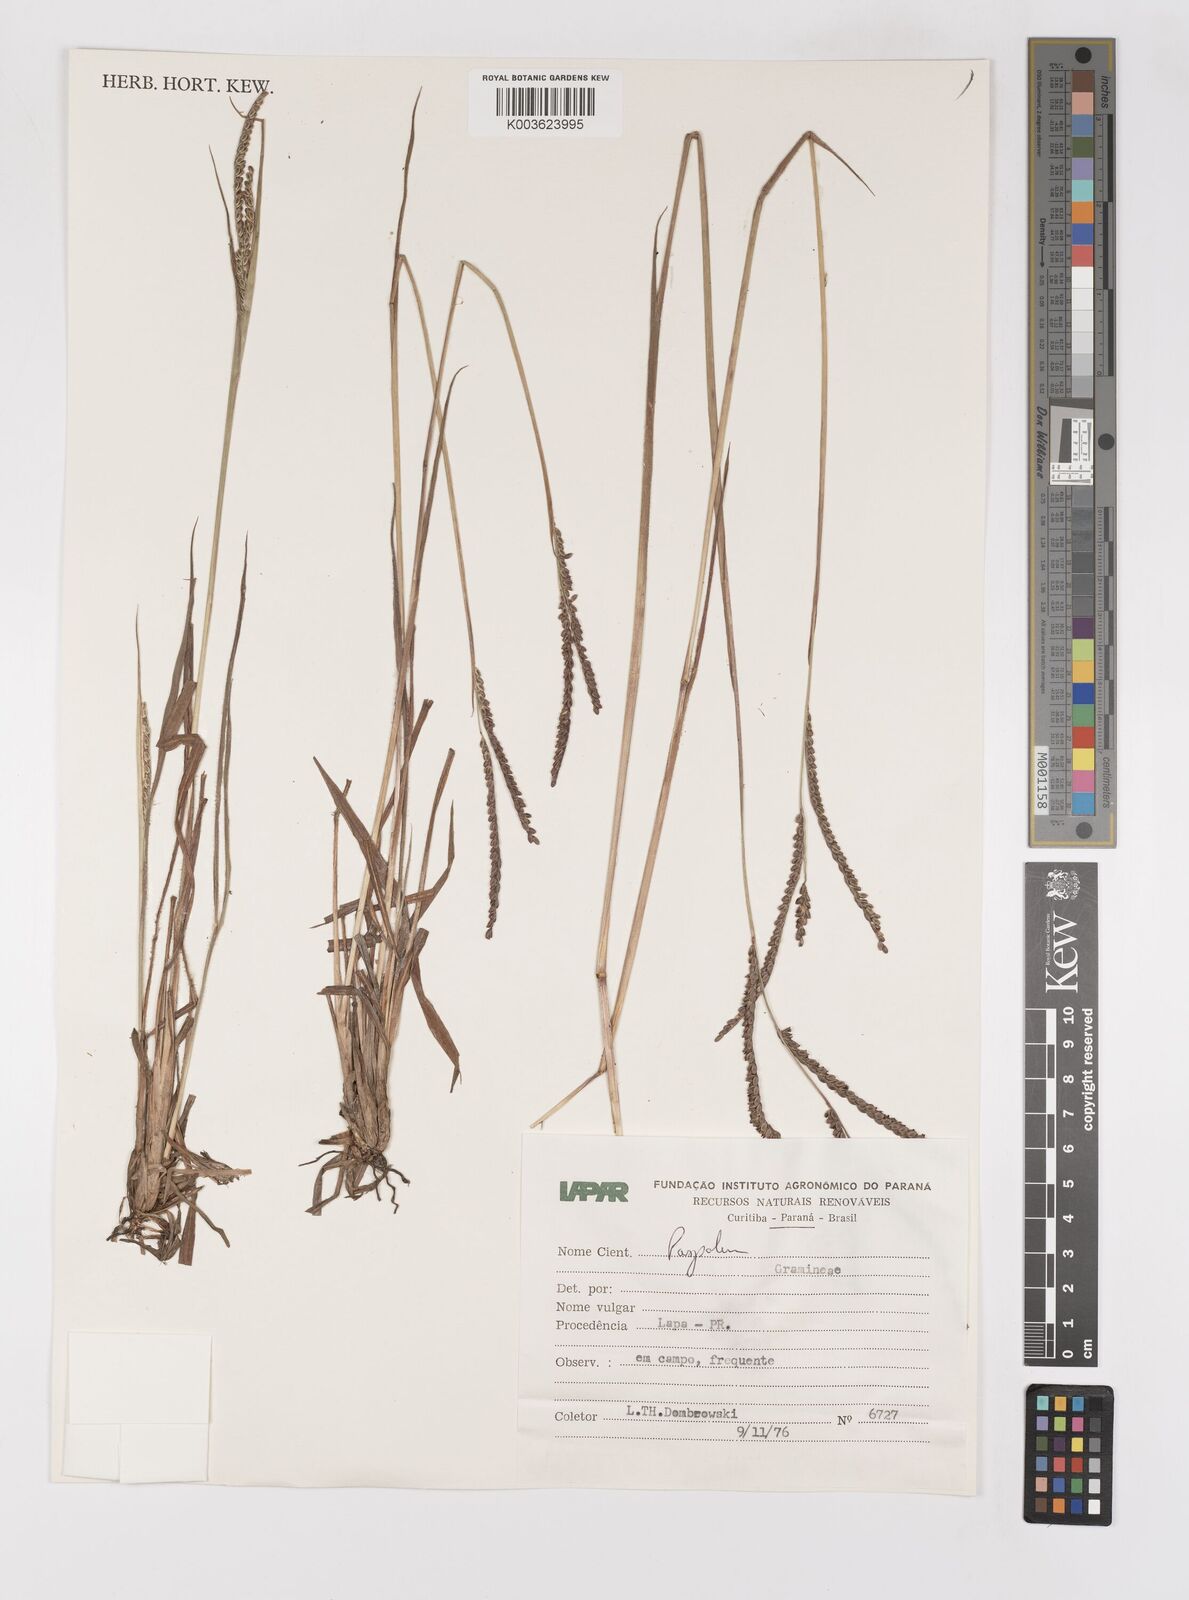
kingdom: Plantae
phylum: Tracheophyta
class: Liliopsida
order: Poales
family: Poaceae
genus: Paspalum
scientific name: Paspalum glaucescens
